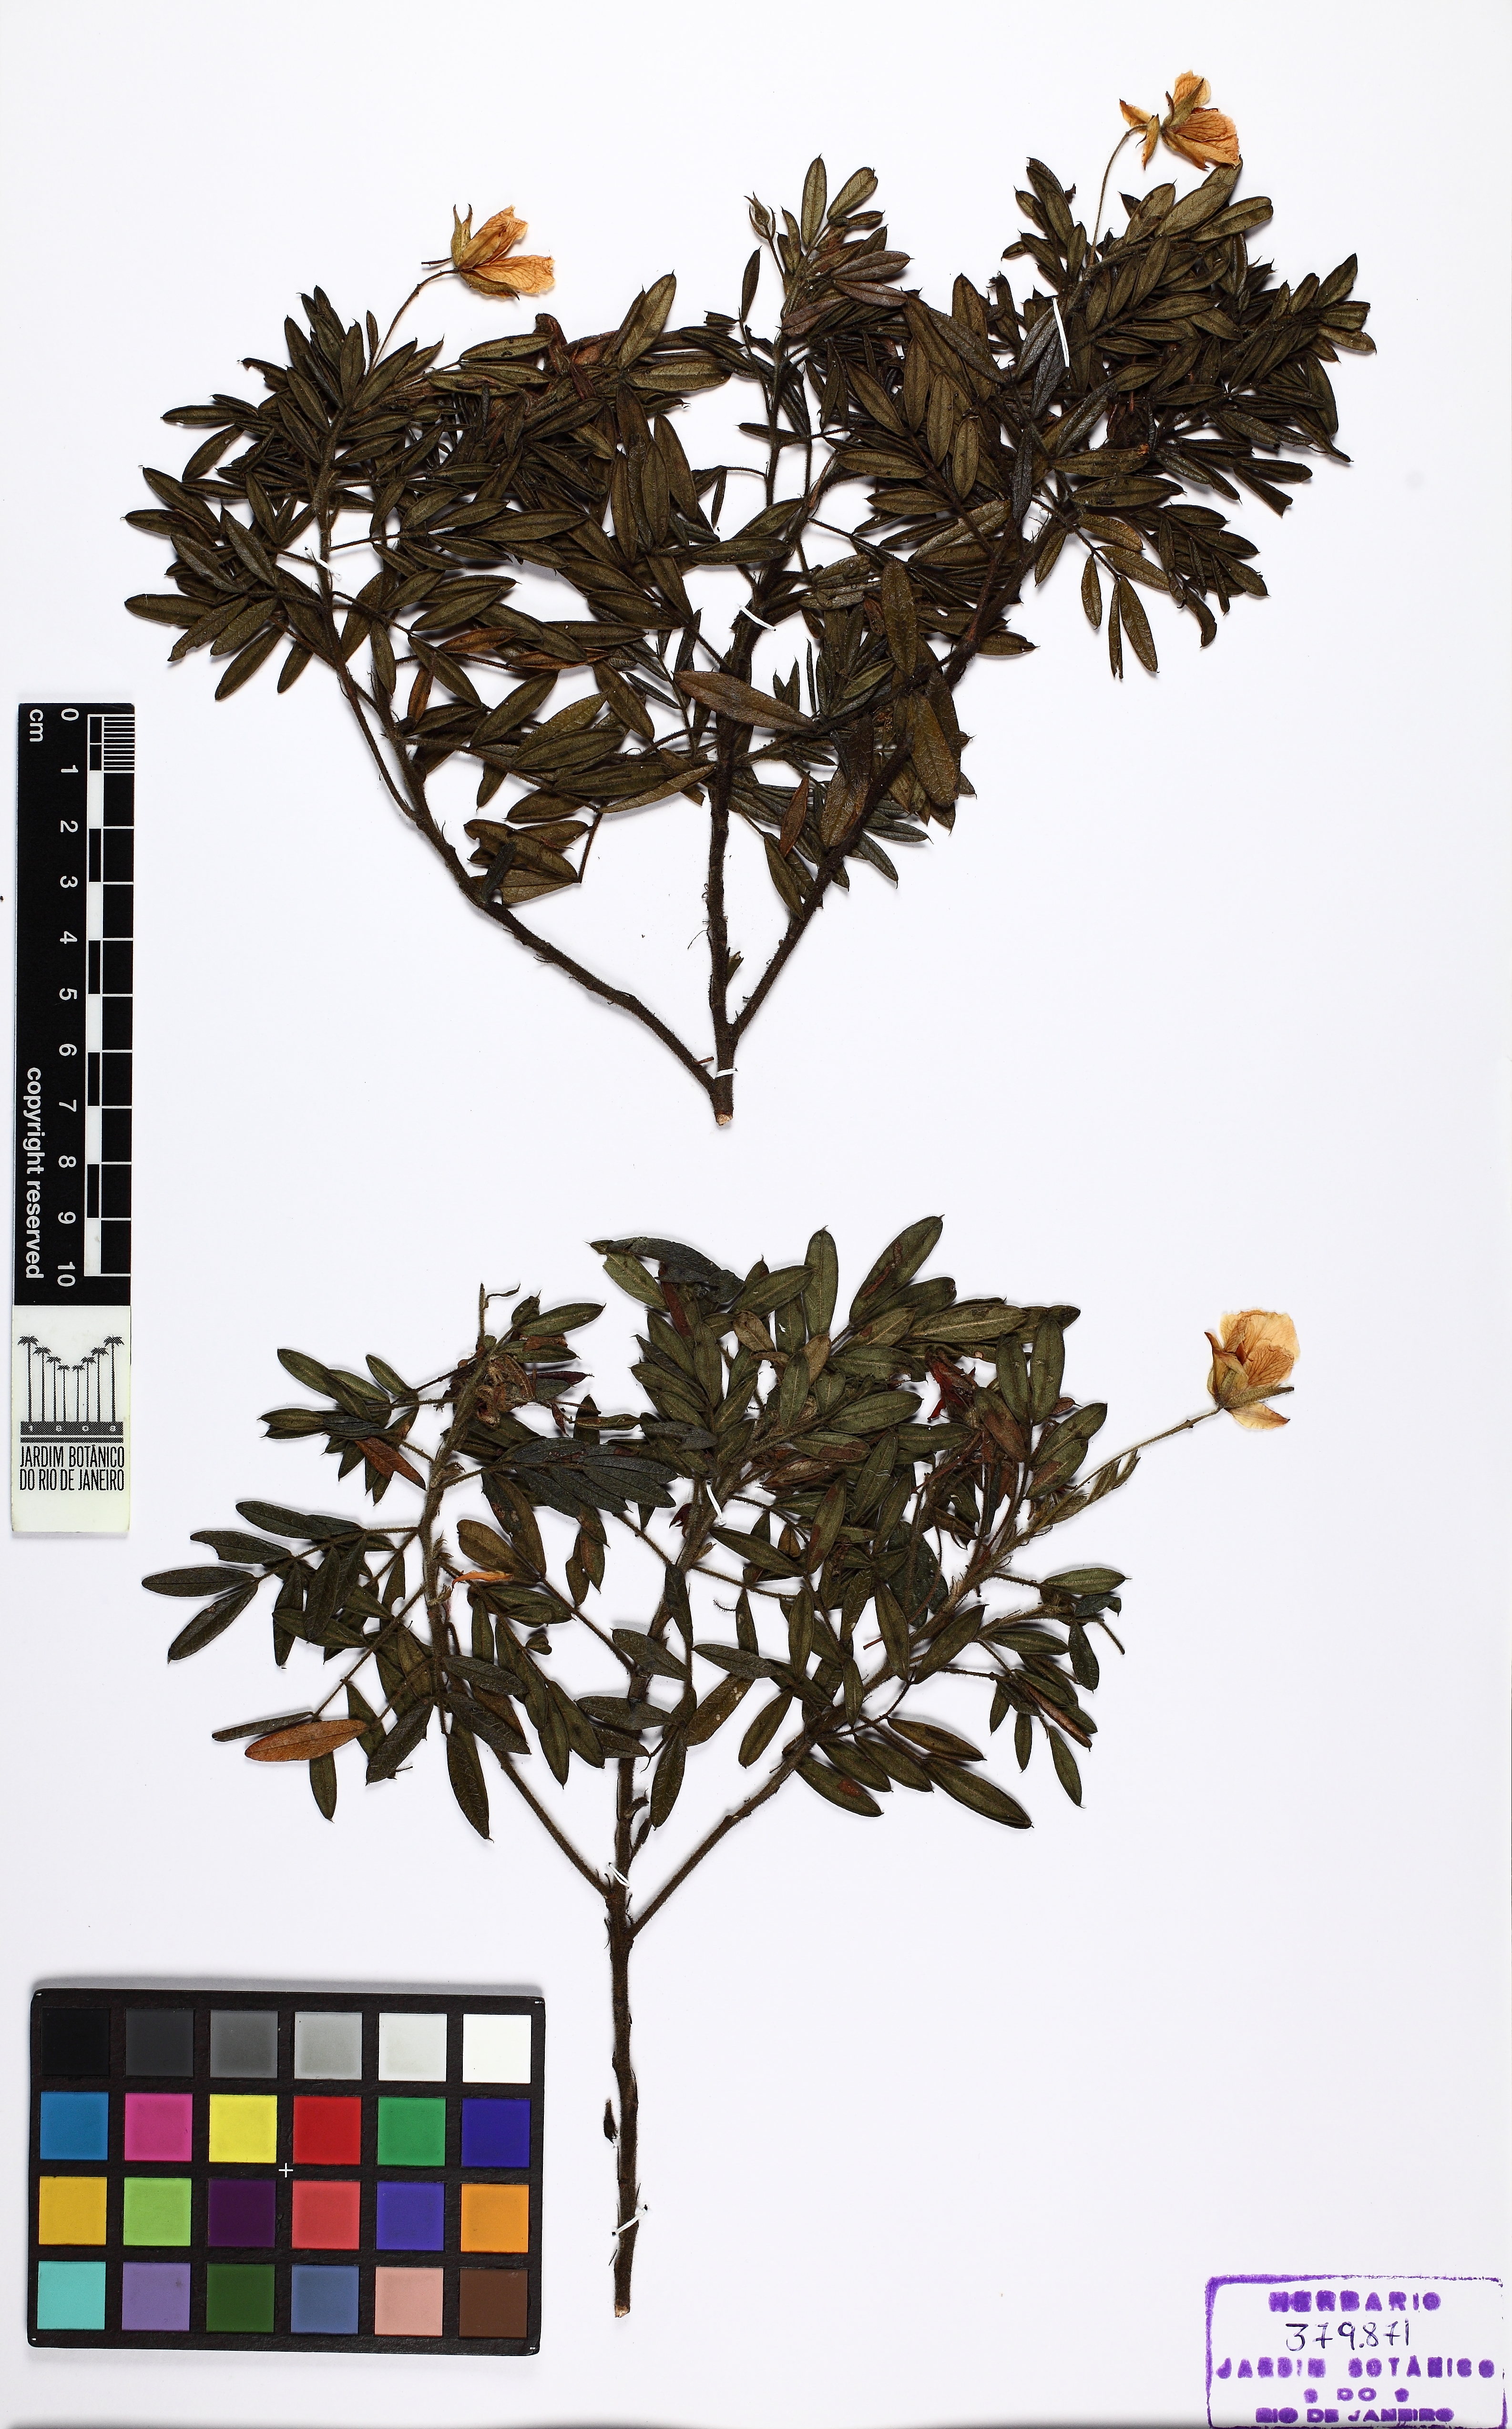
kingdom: Plantae
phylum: Tracheophyta
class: Magnoliopsida
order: Fabales
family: Fabaceae
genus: Chamaecrista
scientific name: Chamaecrista catharticoides
